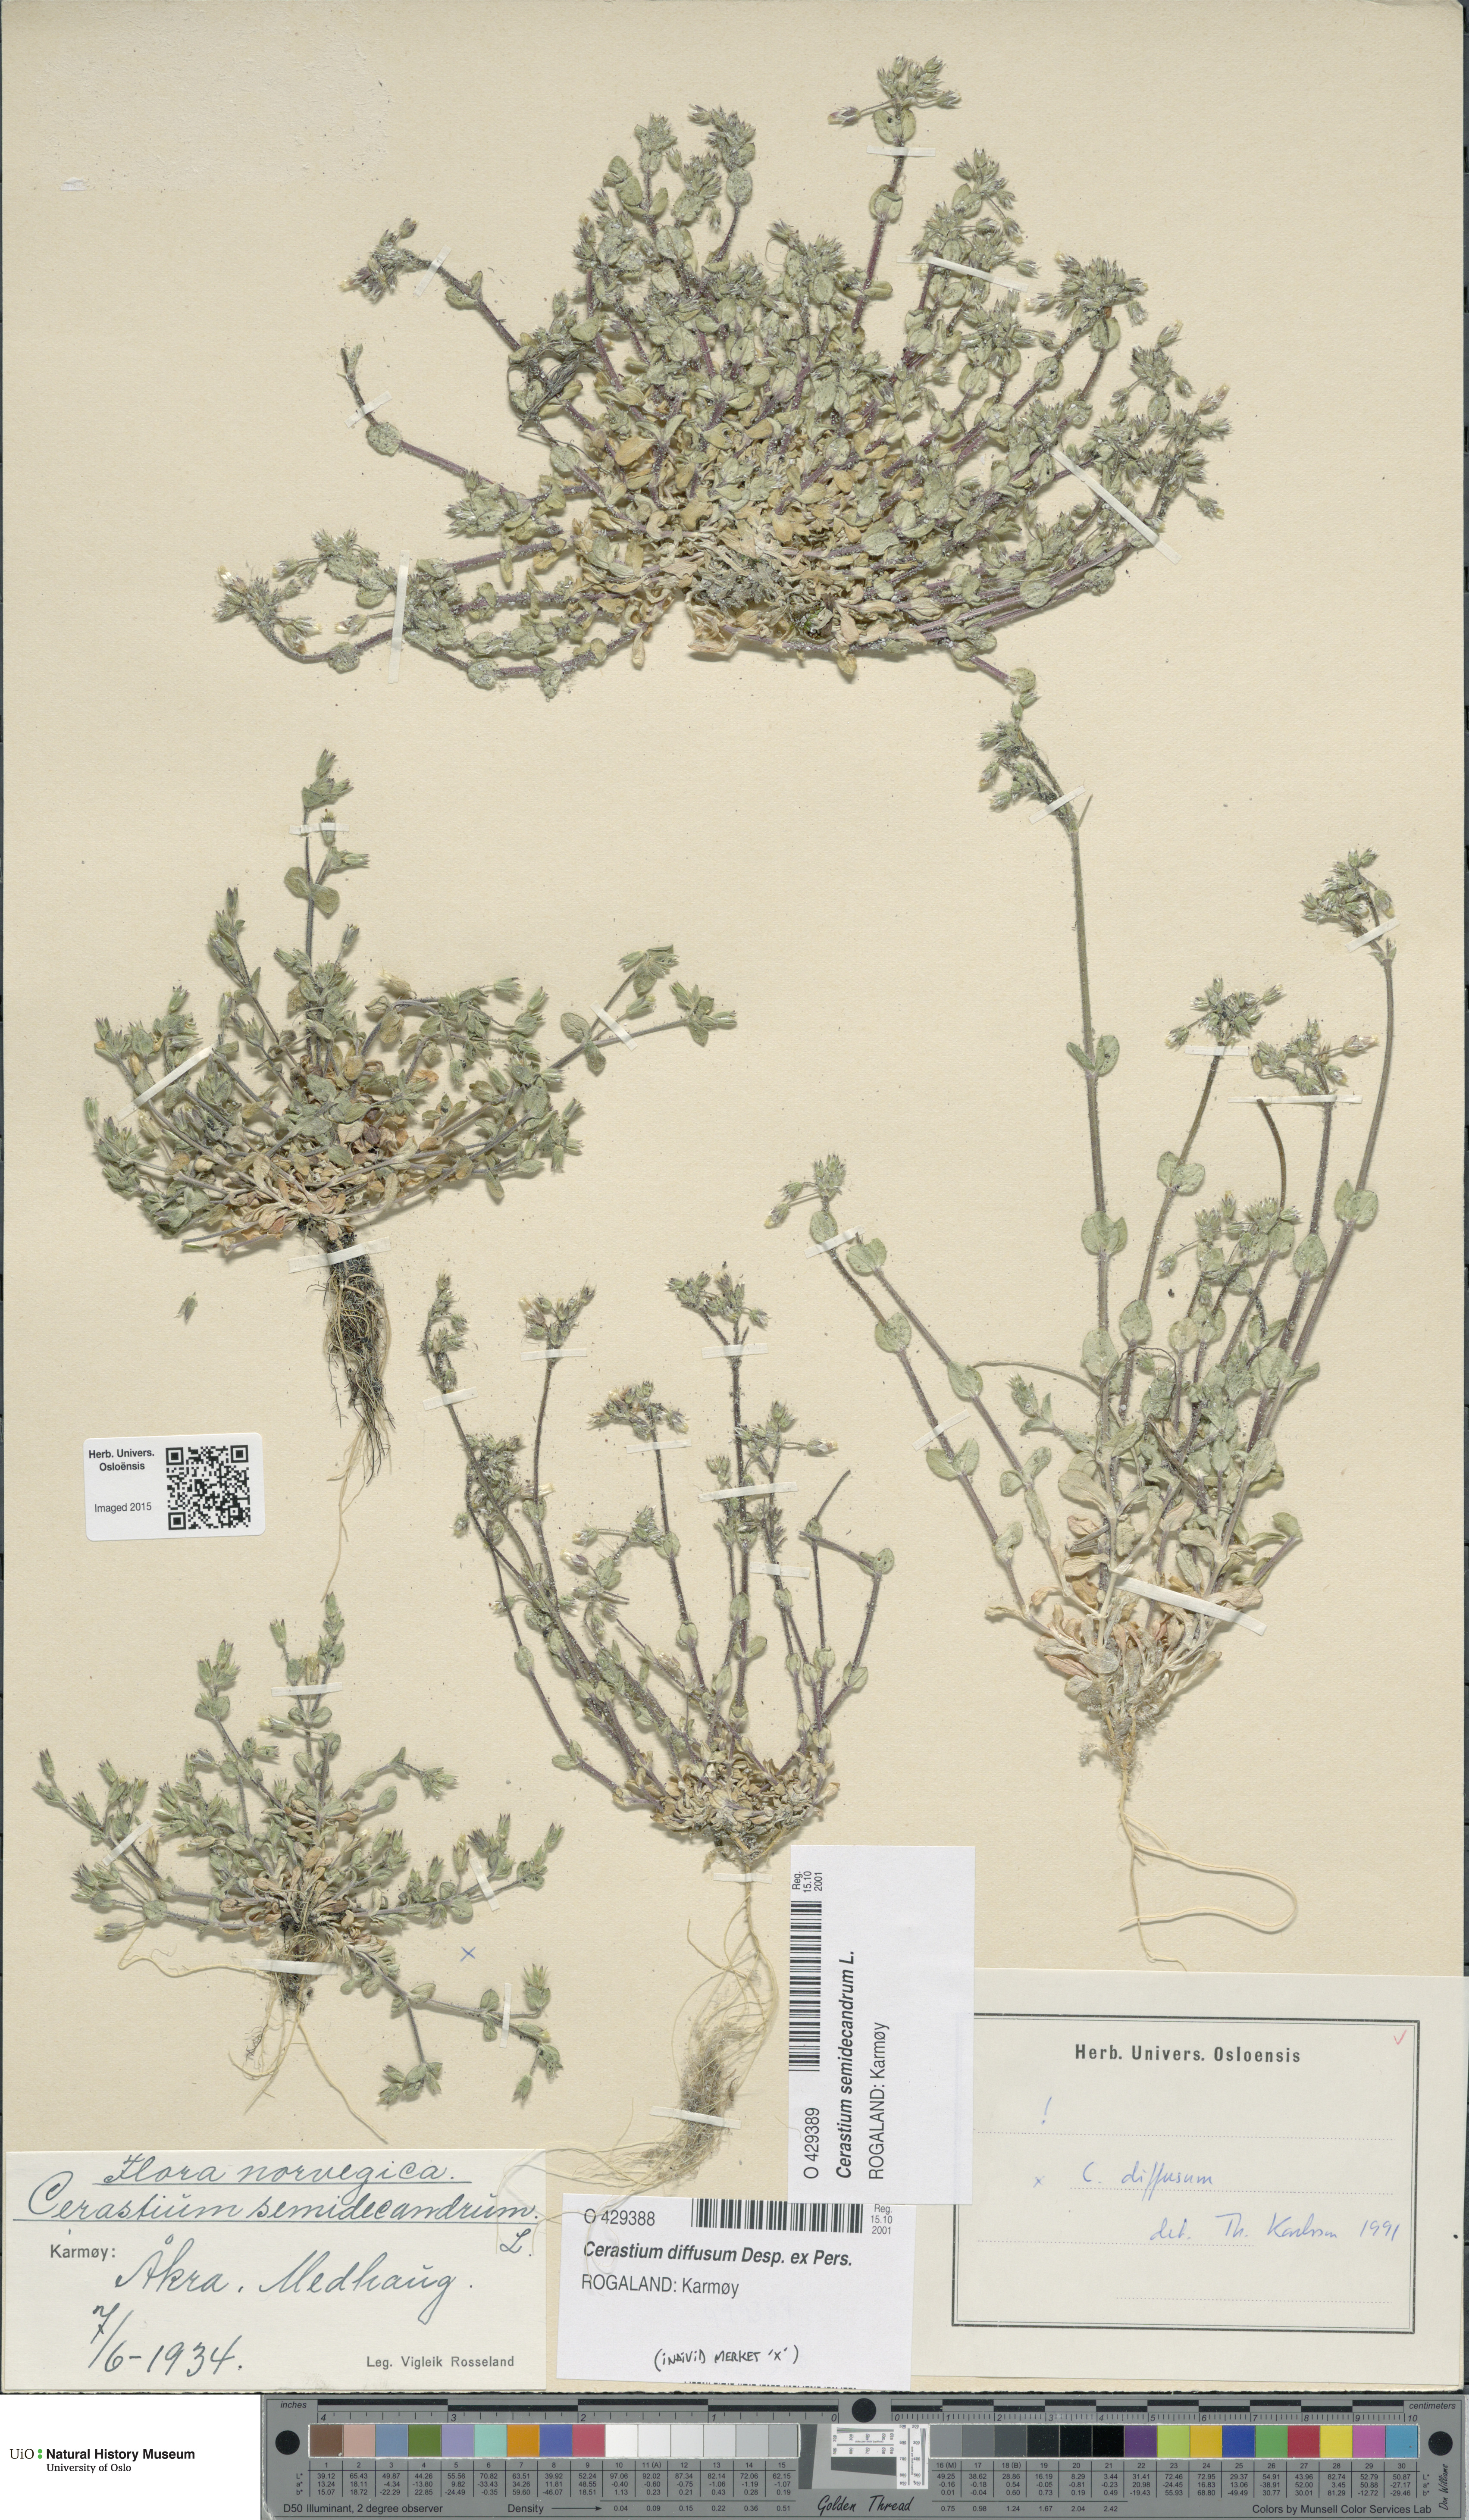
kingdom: Plantae
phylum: Tracheophyta
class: Magnoliopsida
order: Caryophyllales
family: Caryophyllaceae
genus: Cerastium
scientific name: Cerastium semidecandrum
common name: Little mouse-ear
